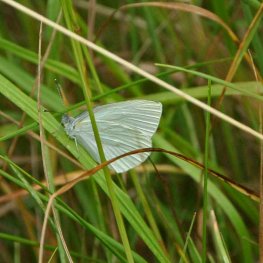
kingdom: Animalia
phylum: Arthropoda
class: Insecta
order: Lepidoptera
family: Pieridae
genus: Pieris
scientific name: Pieris oleracea
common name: Mustard White
